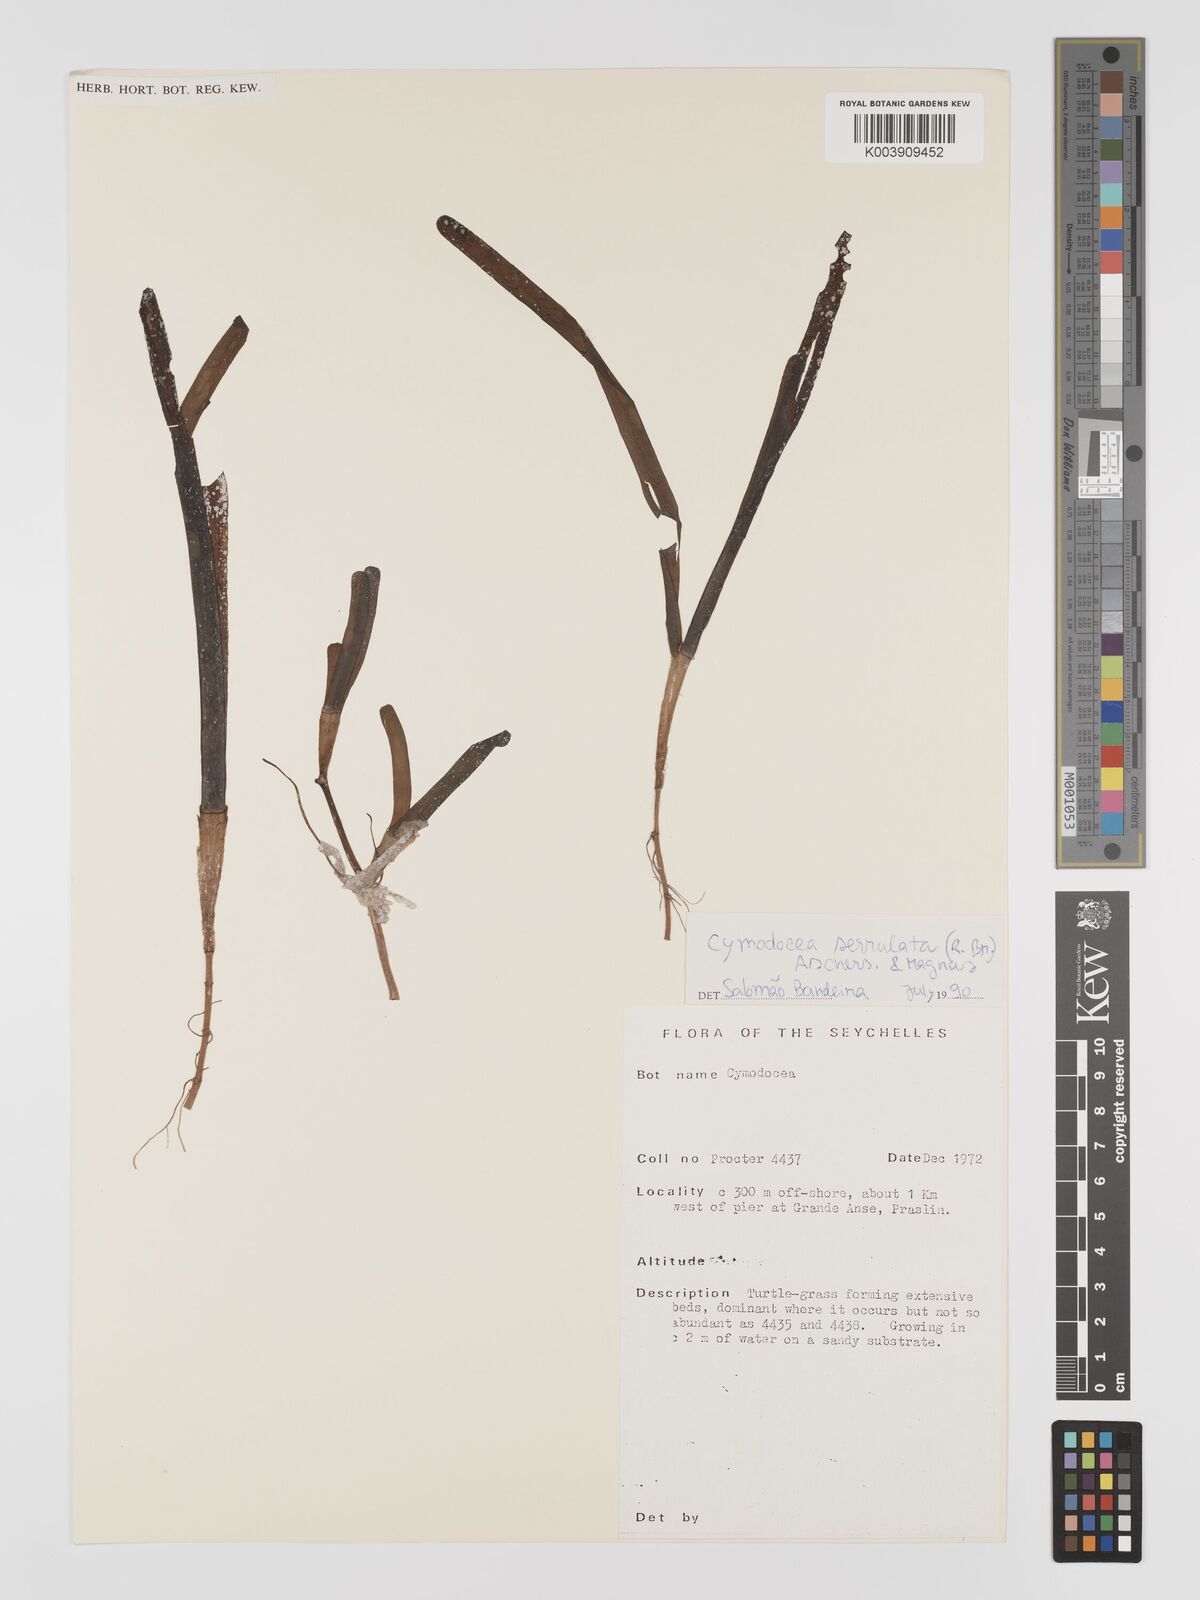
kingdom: Plantae
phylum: Tracheophyta
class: Liliopsida
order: Alismatales
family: Cymodoceaceae
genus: Oceana
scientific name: Oceana serrulata
